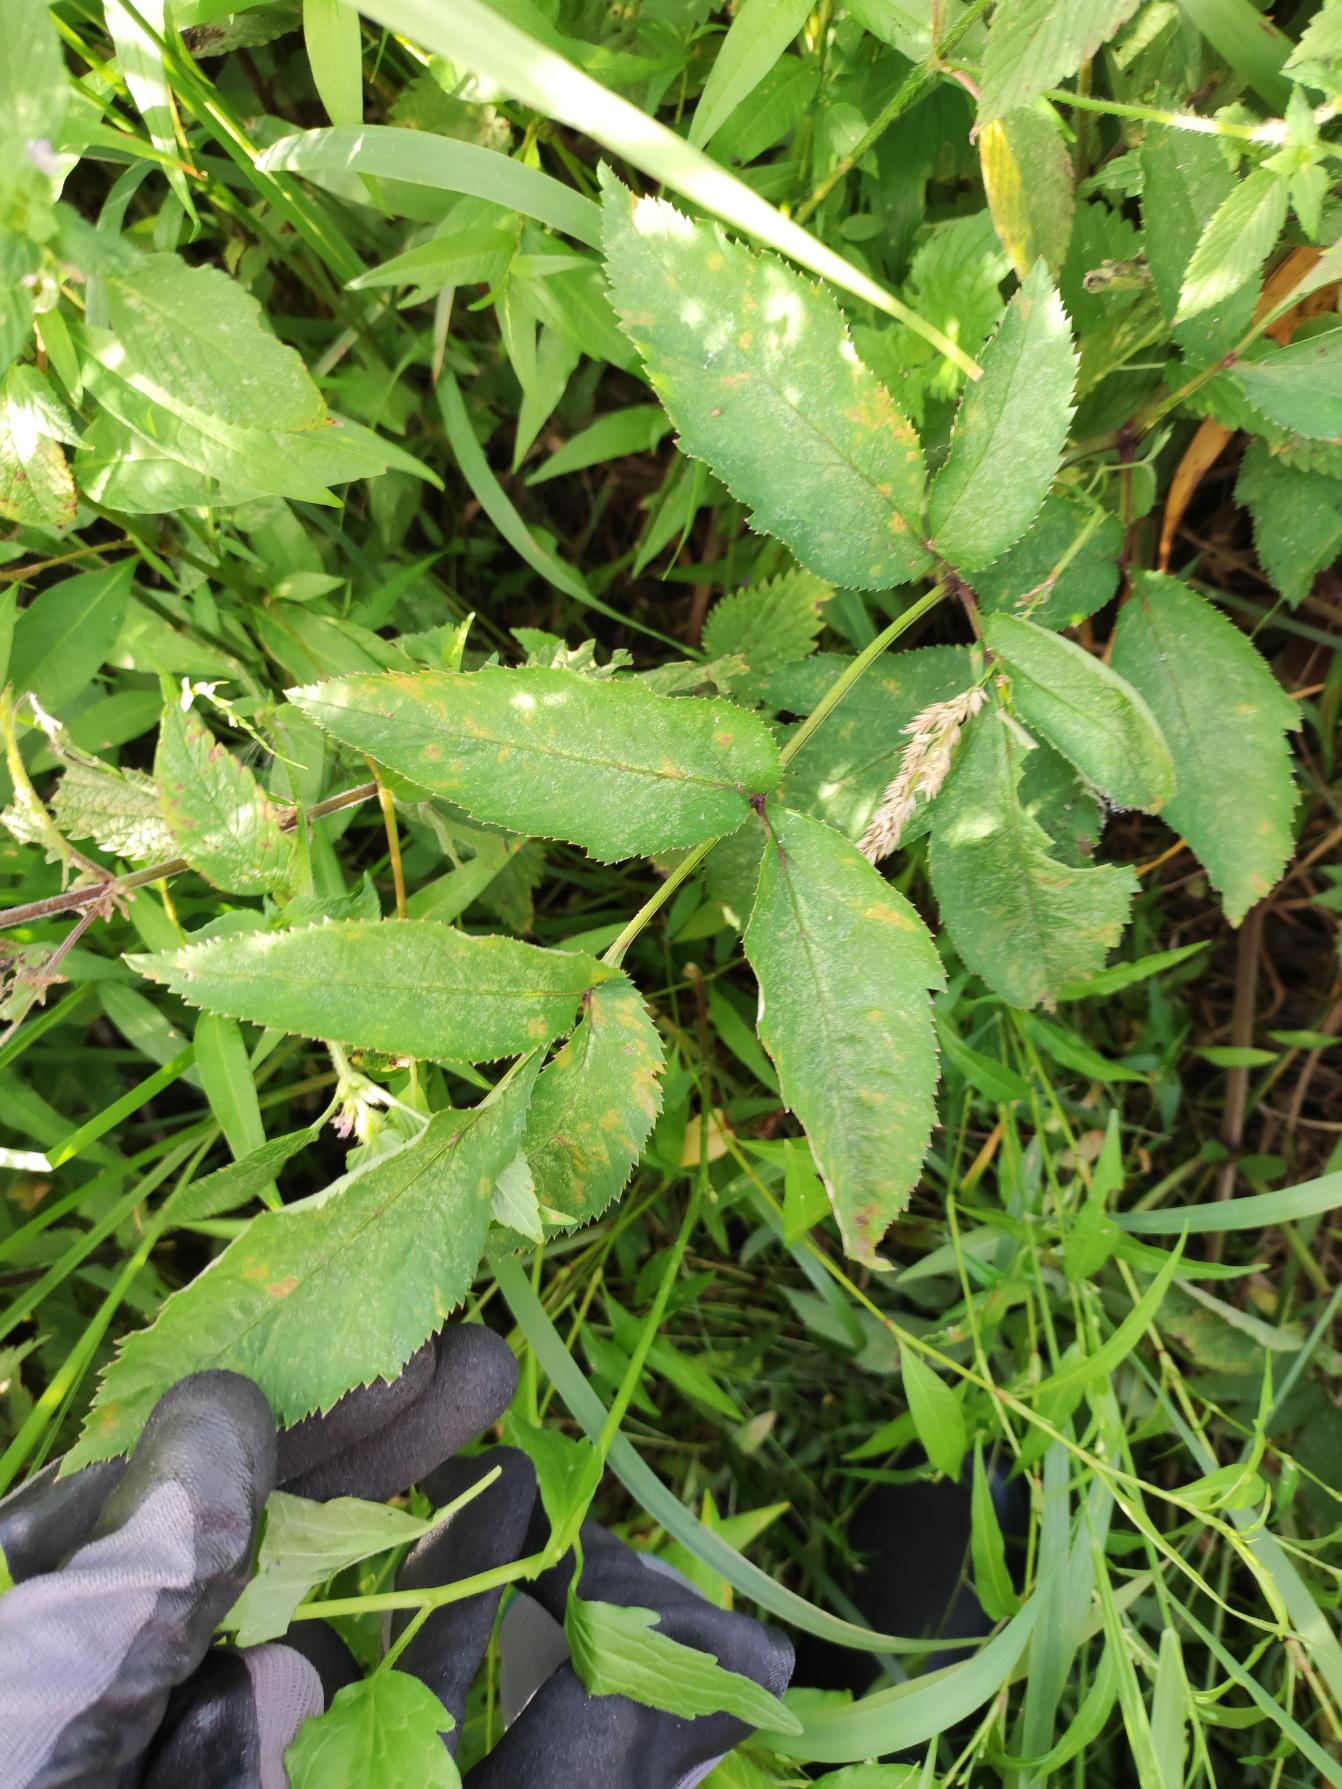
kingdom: Plantae
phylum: Tracheophyta
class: Magnoliopsida
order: Apiales
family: Apiaceae
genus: Angelica
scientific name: Angelica sylvestris
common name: Angelik
